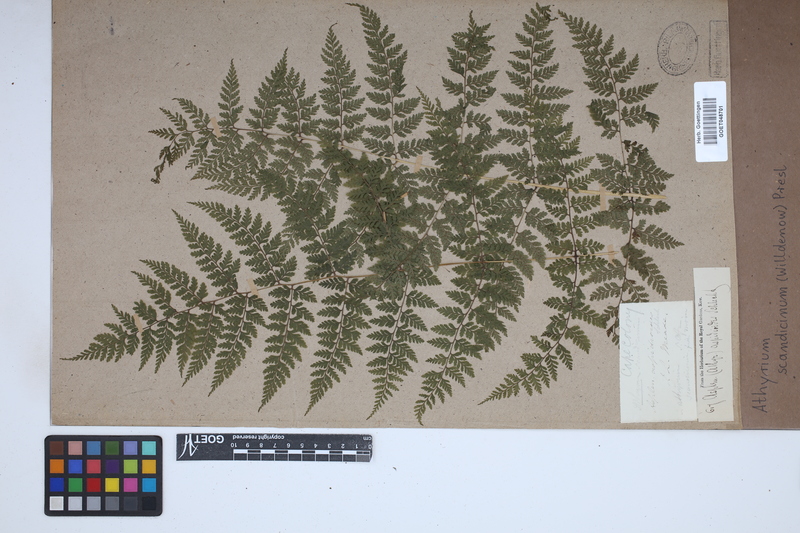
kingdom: Plantae
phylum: Tracheophyta
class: Polypodiopsida
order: Polypodiales
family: Athyriaceae
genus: Athyrium
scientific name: Athyrium scandicinum
